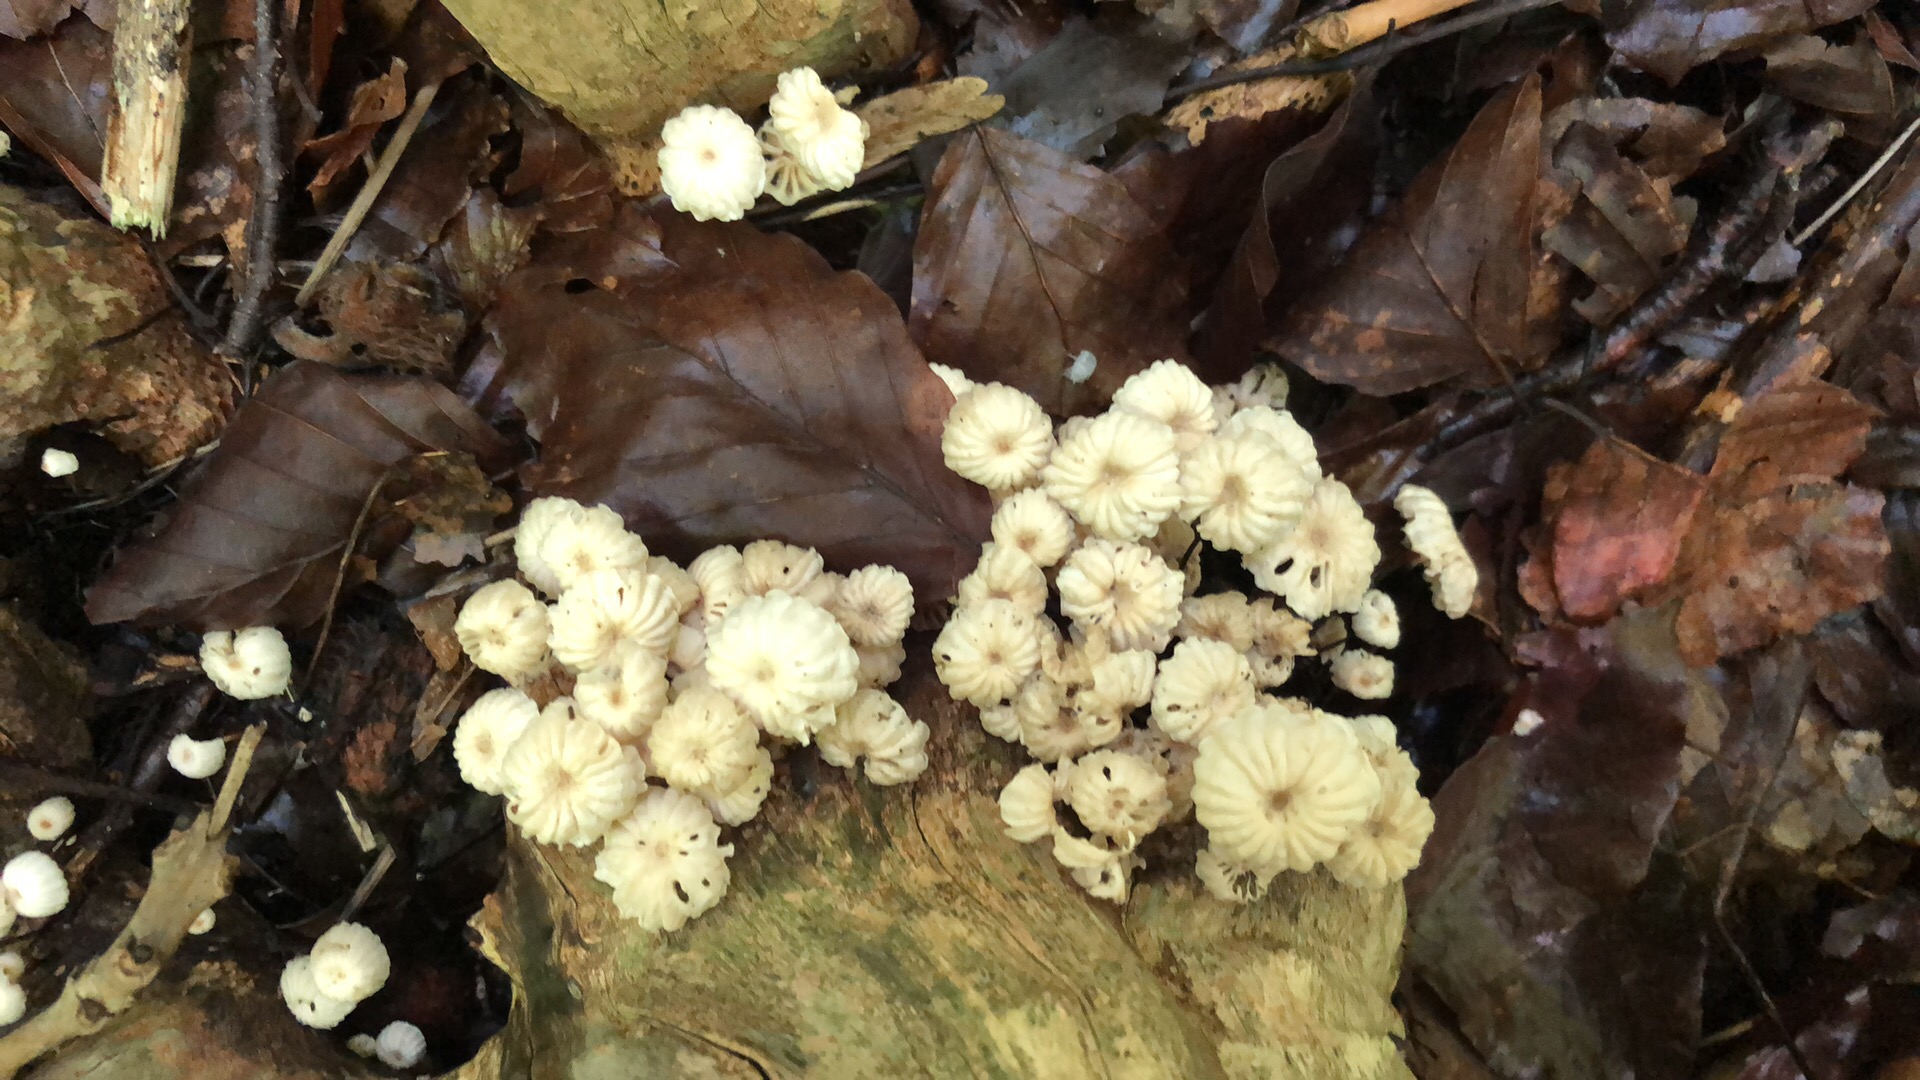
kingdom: Fungi
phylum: Basidiomycota
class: Agaricomycetes
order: Agaricales
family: Marasmiaceae
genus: Marasmius
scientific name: Marasmius rotula
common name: hjul-bruskhat
